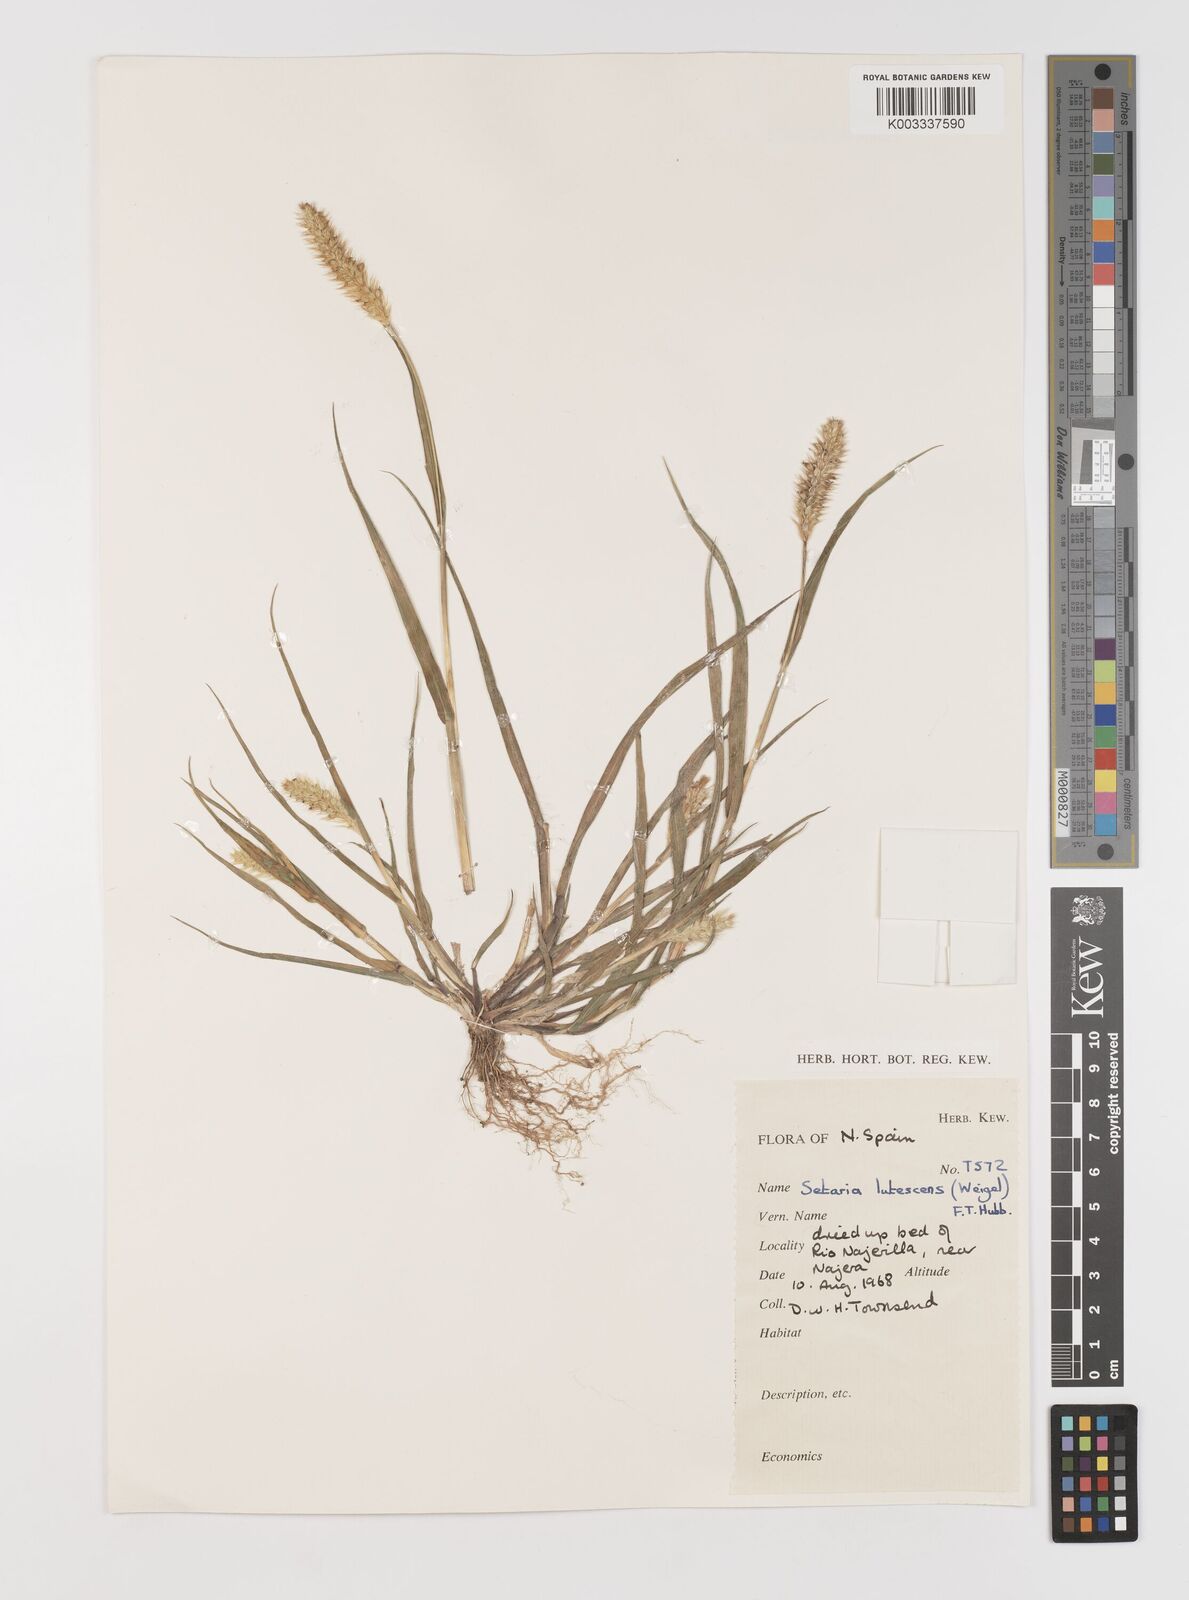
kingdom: Plantae
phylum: Tracheophyta
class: Liliopsida
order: Poales
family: Poaceae
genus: Setaria
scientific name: Setaria pumila
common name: Yellow bristle-grass
